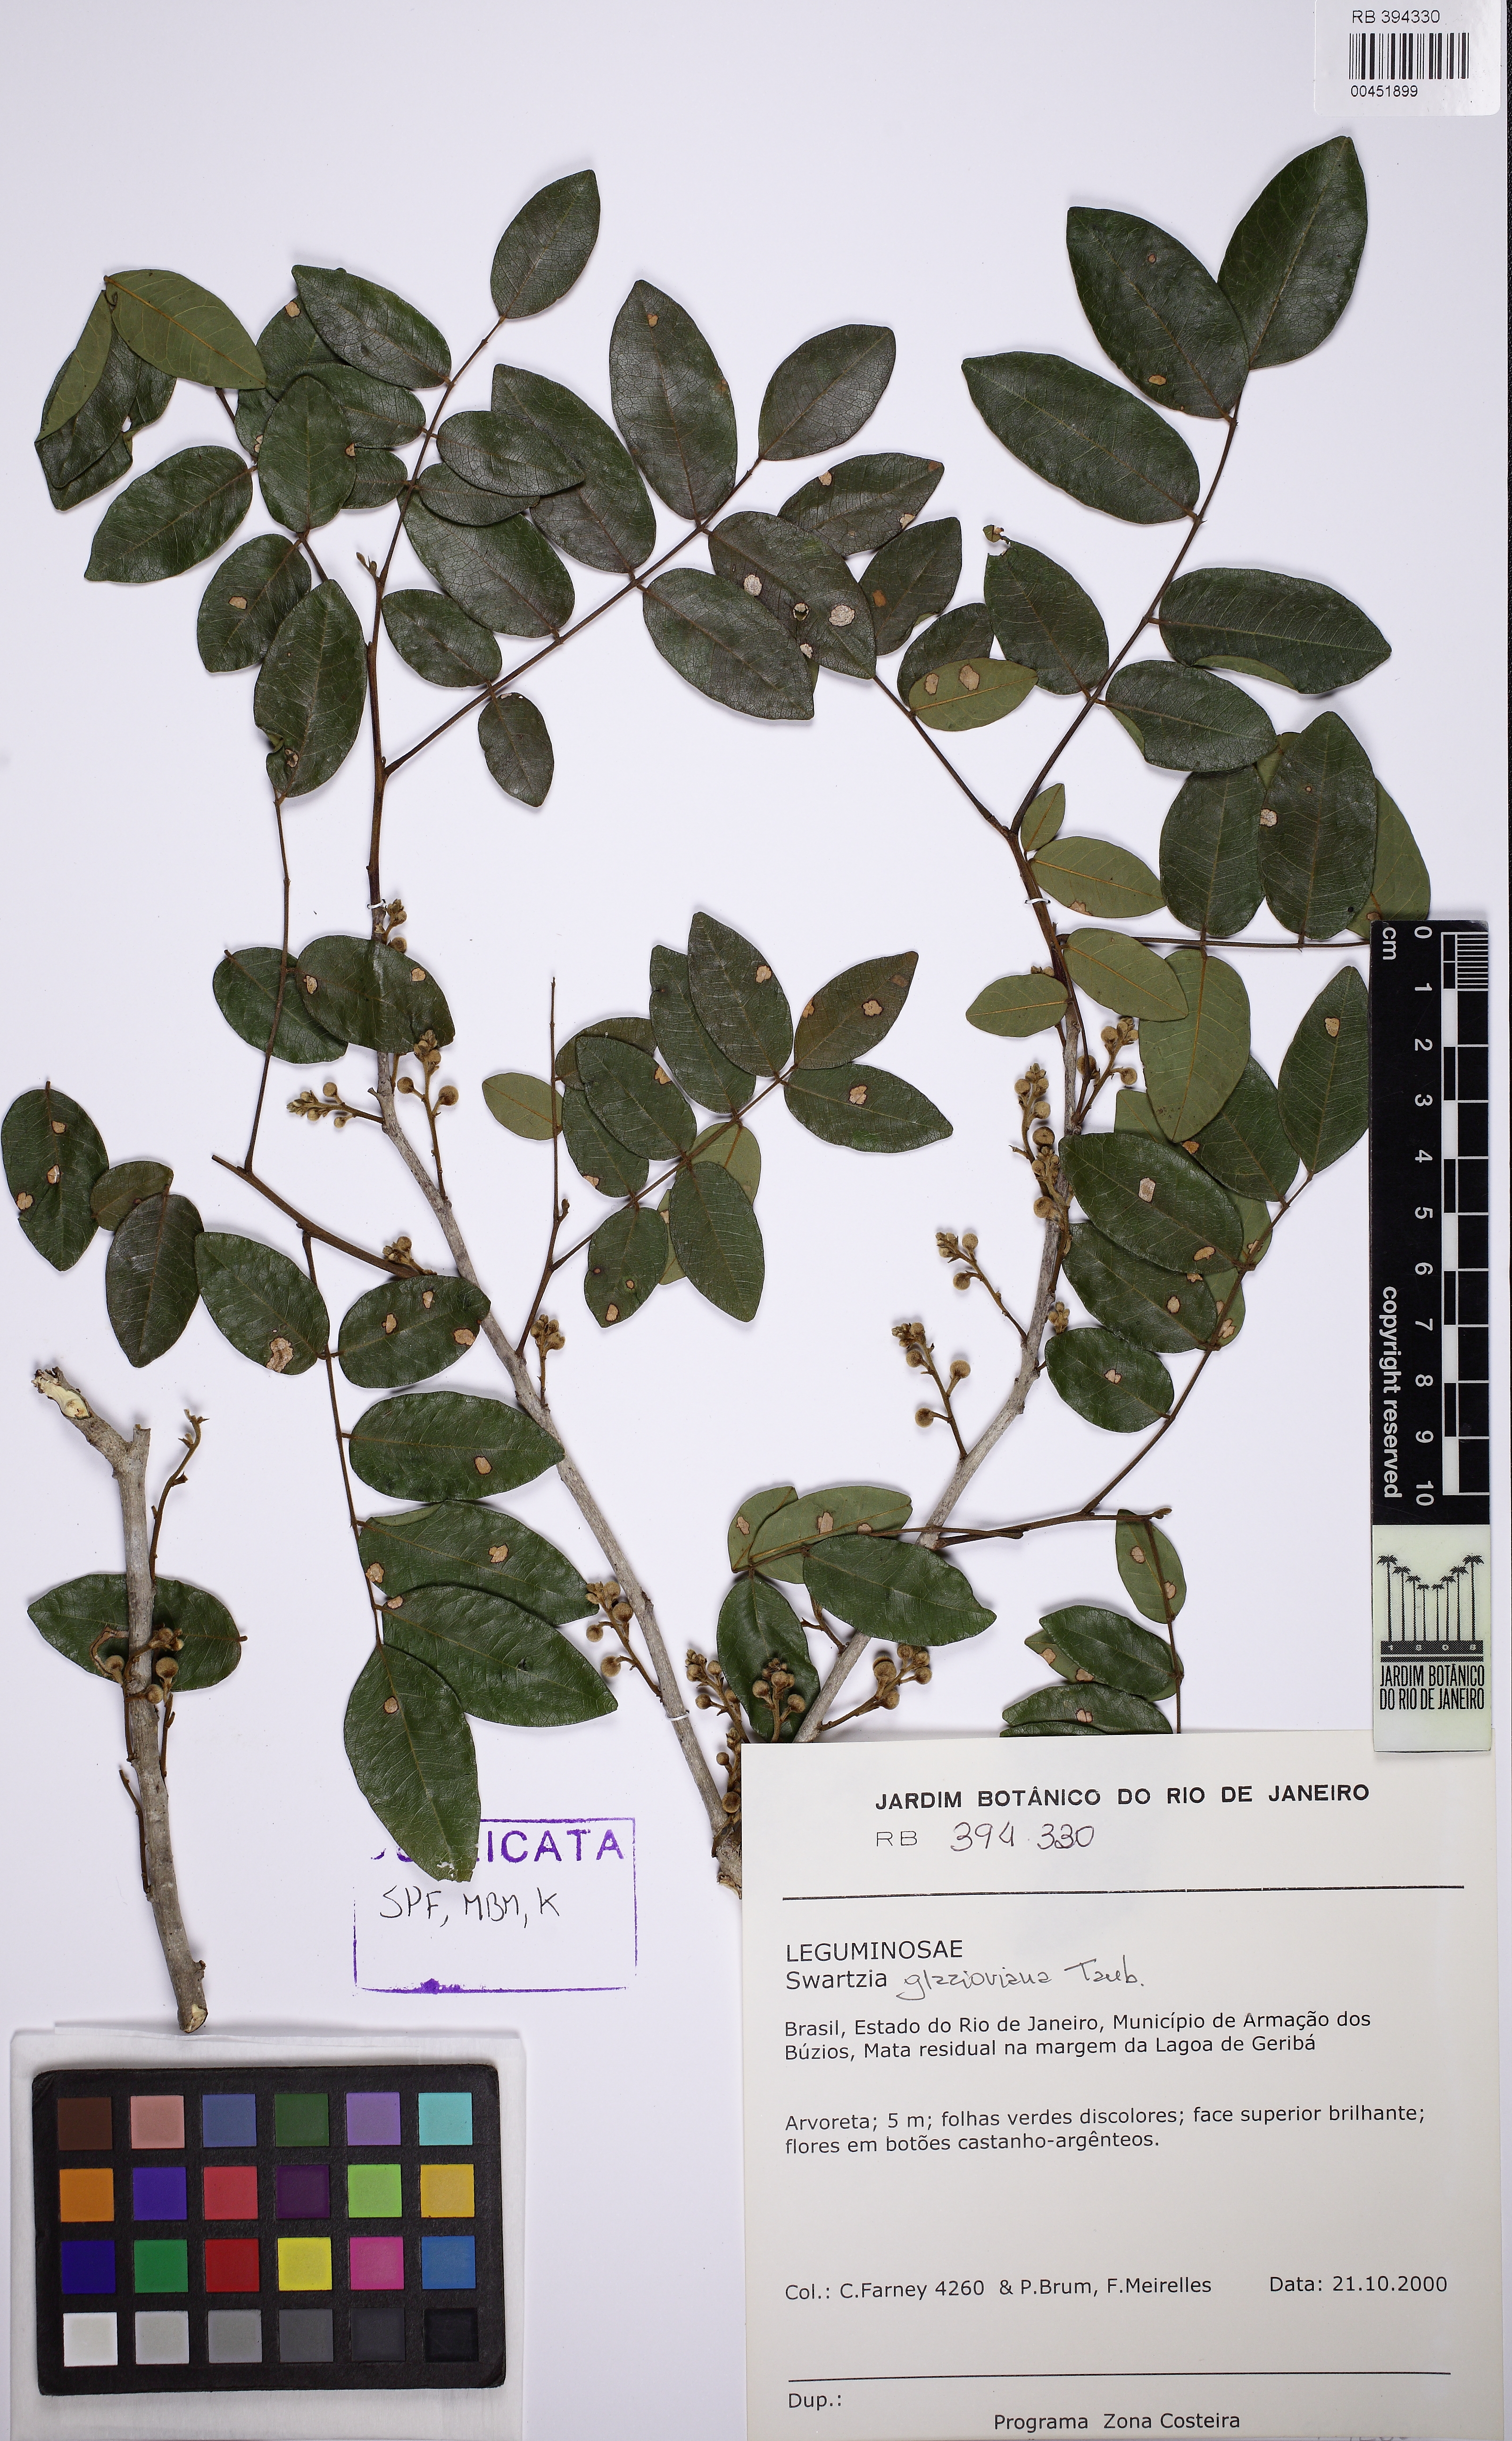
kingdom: Plantae
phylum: Tracheophyta
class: Magnoliopsida
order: Fabales
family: Fabaceae
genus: Swartzia
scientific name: Swartzia glazioviana
